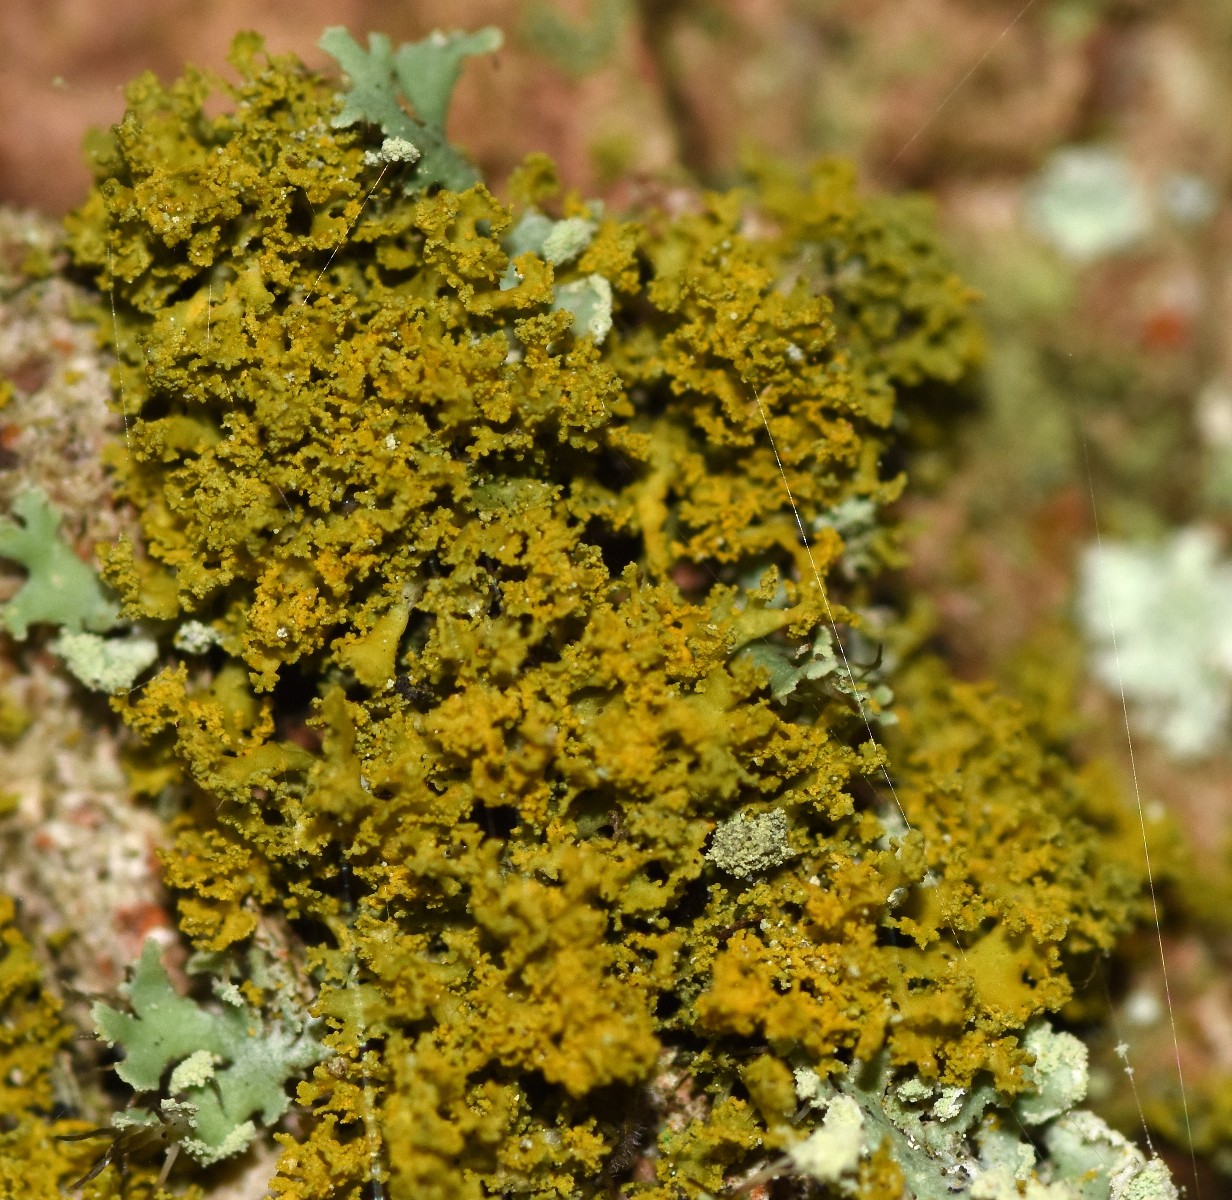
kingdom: Fungi
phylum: Ascomycota
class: Lecanoromycetes
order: Teloschistales
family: Teloschistaceae
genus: Polycauliona
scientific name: Polycauliona candelaria
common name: tue-orangelav
